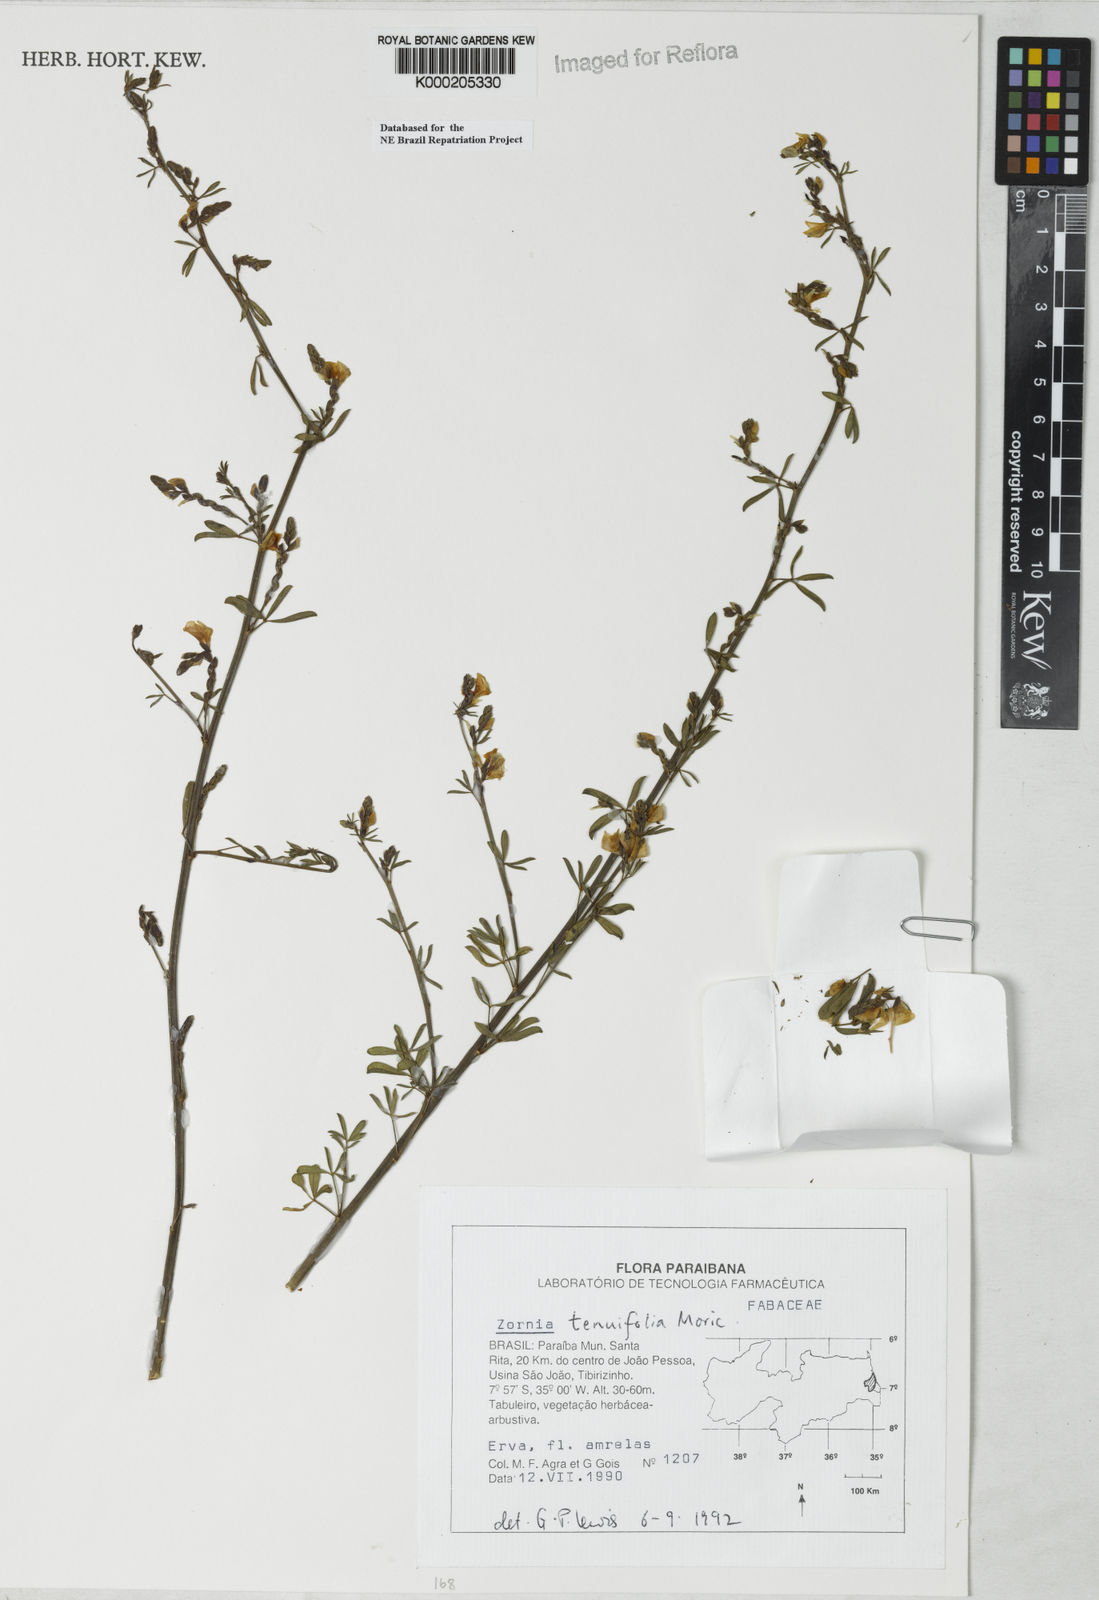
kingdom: Plantae
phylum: Tracheophyta
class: Magnoliopsida
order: Fabales
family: Fabaceae
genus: Zornia
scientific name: Zornia tenuifolia
